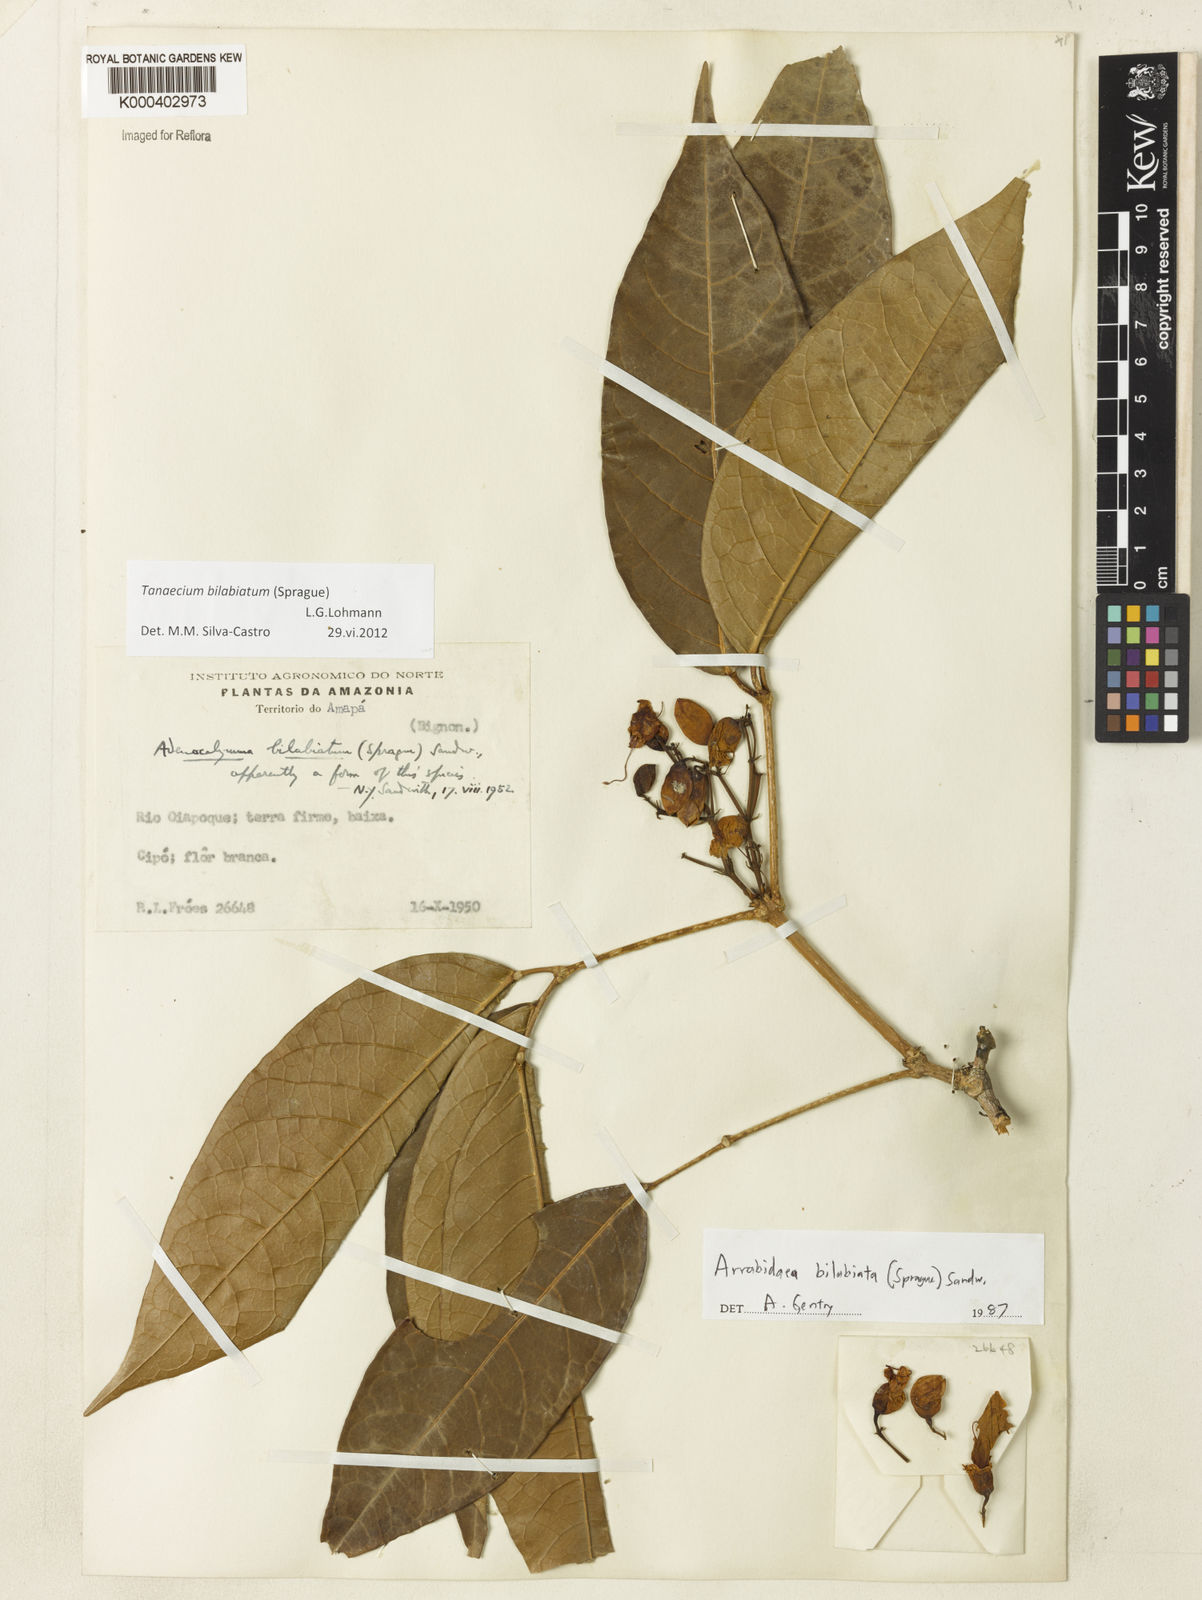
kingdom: Plantae
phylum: Tracheophyta
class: Magnoliopsida
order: Lamiales
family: Bignoniaceae
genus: Tanaecium
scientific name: Tanaecium bilabiatum
